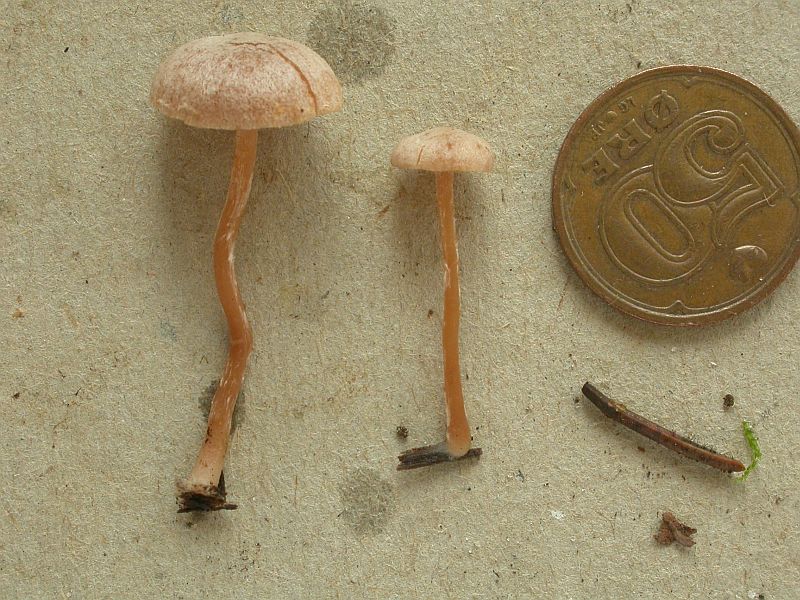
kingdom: Fungi
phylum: Basidiomycota
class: Agaricomycetes
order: Agaricales
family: Tubariaceae
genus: Tubaria
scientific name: Tubaria conspersa
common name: bleg fnughat
